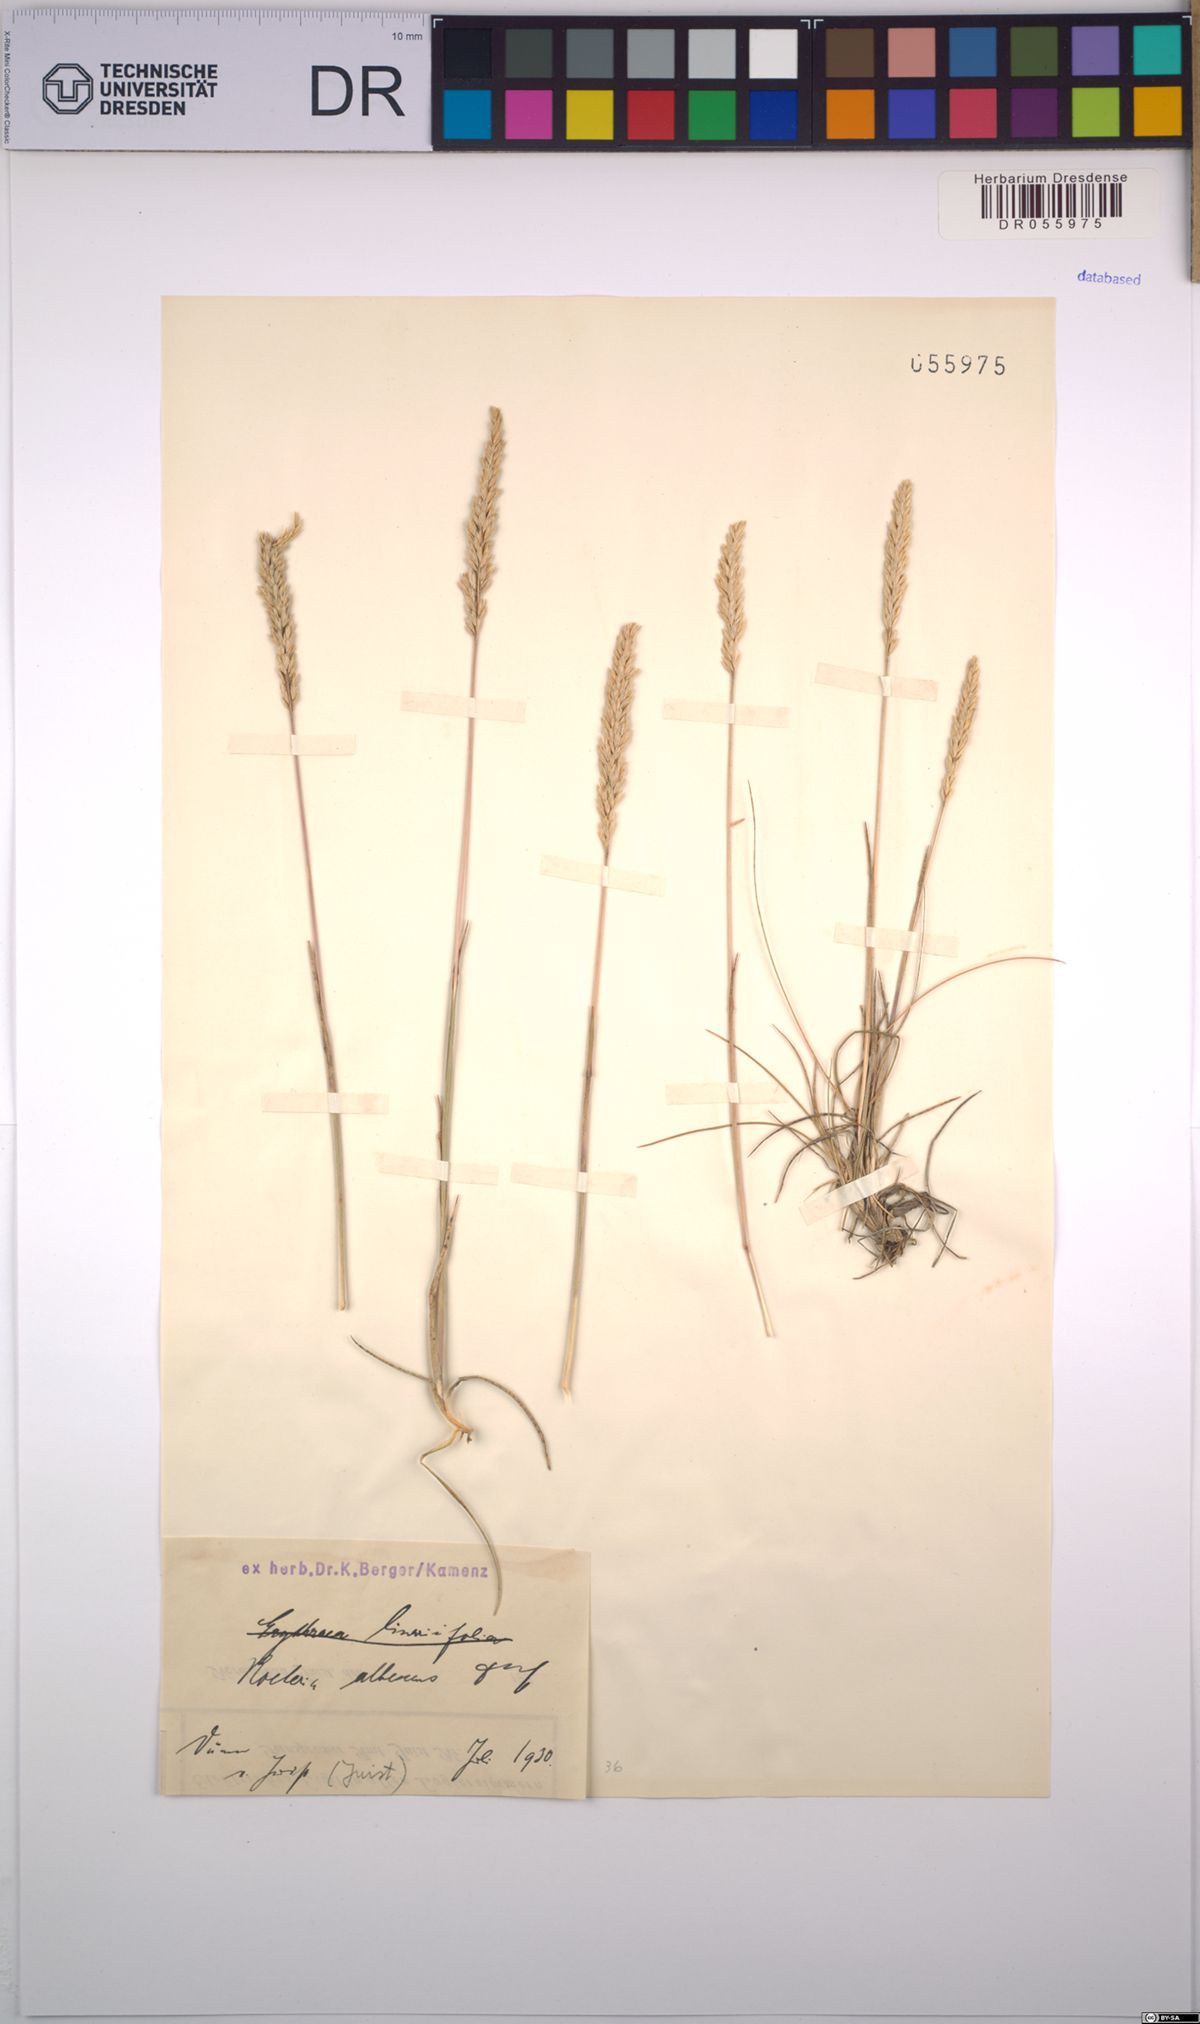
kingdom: Plantae
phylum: Tracheophyta
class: Liliopsida
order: Poales
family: Poaceae
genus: Koeleria
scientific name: Koeleria pyramidata
